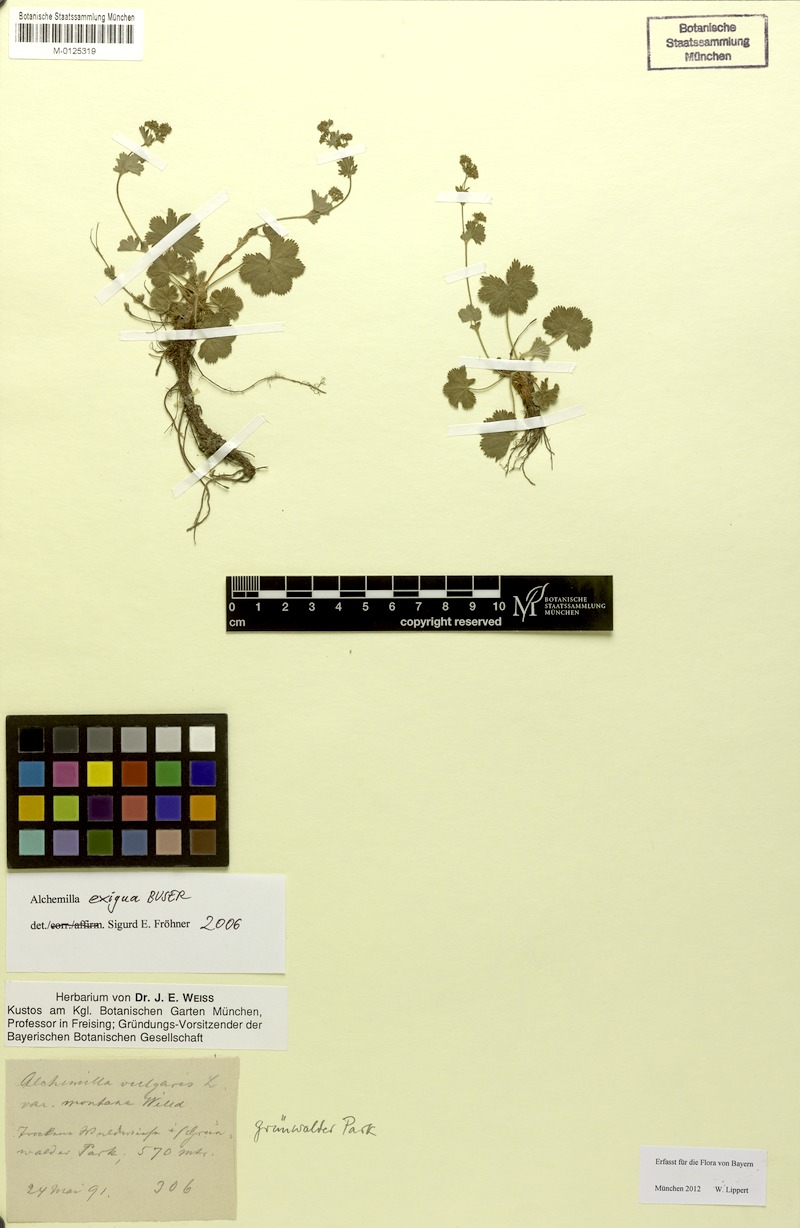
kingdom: Plantae
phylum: Tracheophyta
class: Magnoliopsida
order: Rosales
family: Rosaceae
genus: Alchemilla
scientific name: Alchemilla exigua
